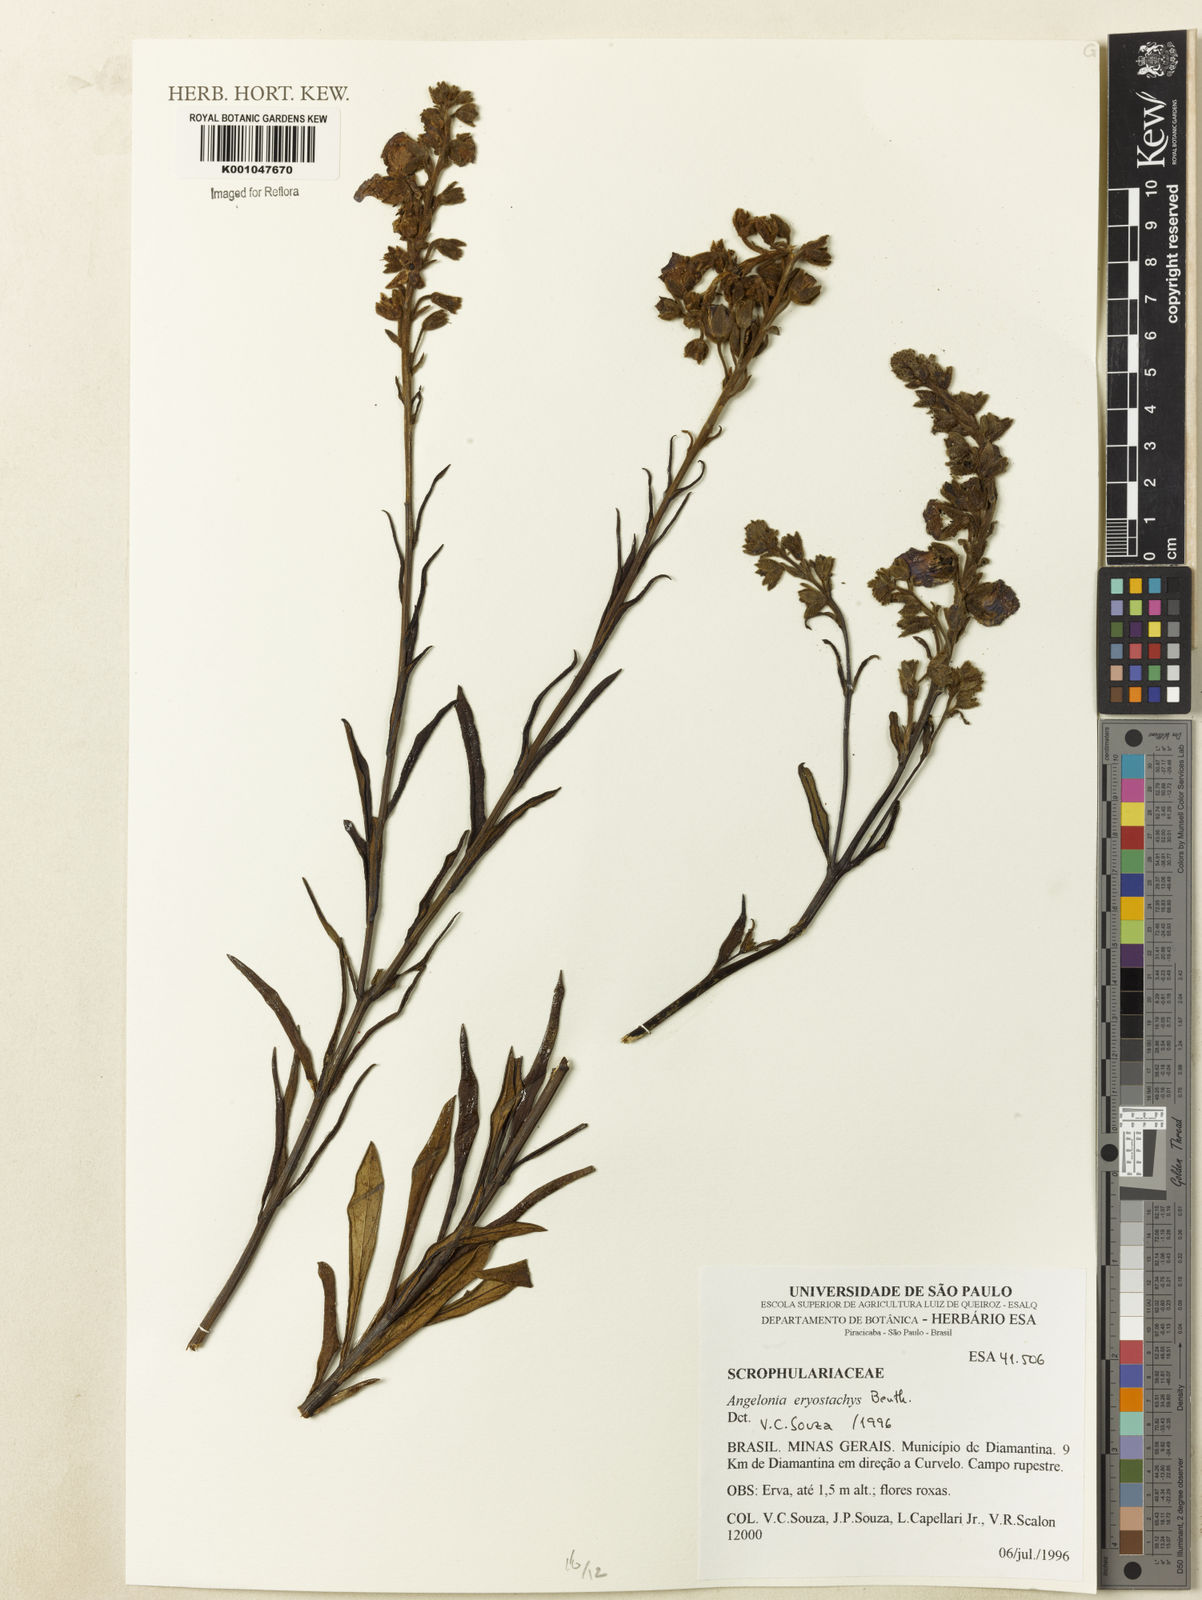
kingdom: Plantae
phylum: Tracheophyta
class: Magnoliopsida
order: Lamiales
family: Plantaginaceae
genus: Angelonia
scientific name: Angelonia eriostachys
